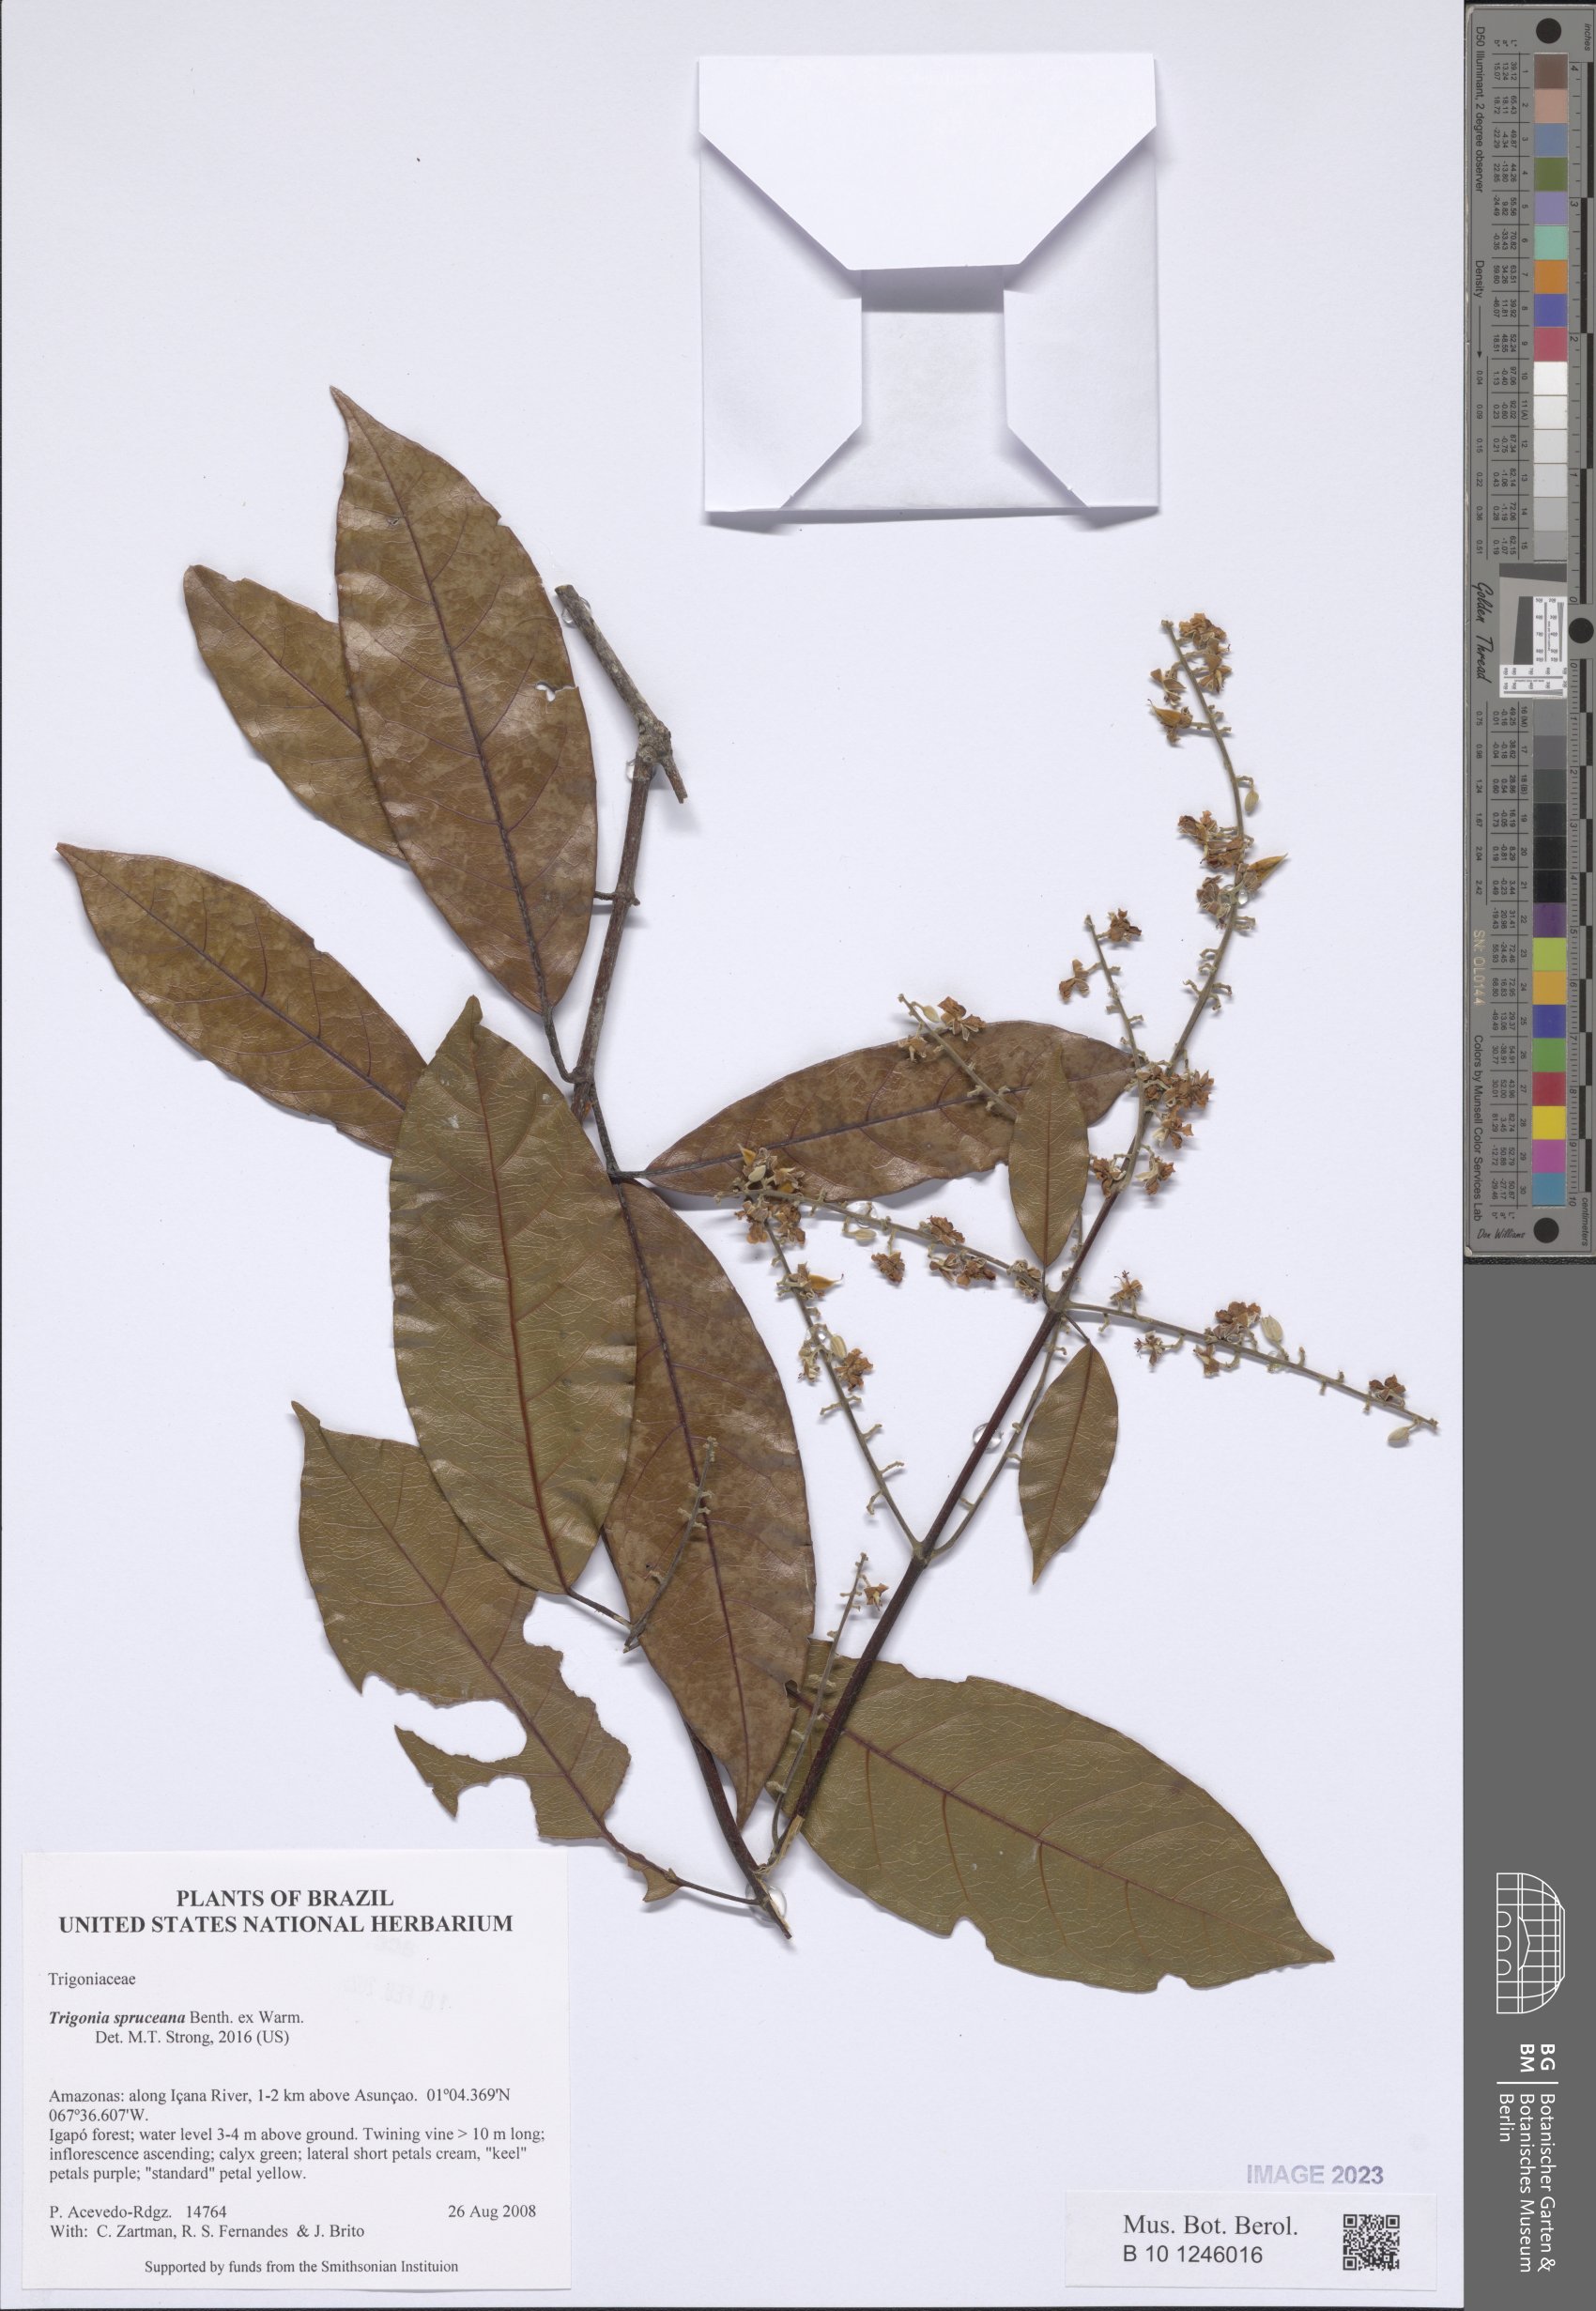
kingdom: Plantae
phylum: Tracheophyta
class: Magnoliopsida
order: Malpighiales
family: Trigoniaceae
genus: Trigonia
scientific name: Trigonia spruceana
